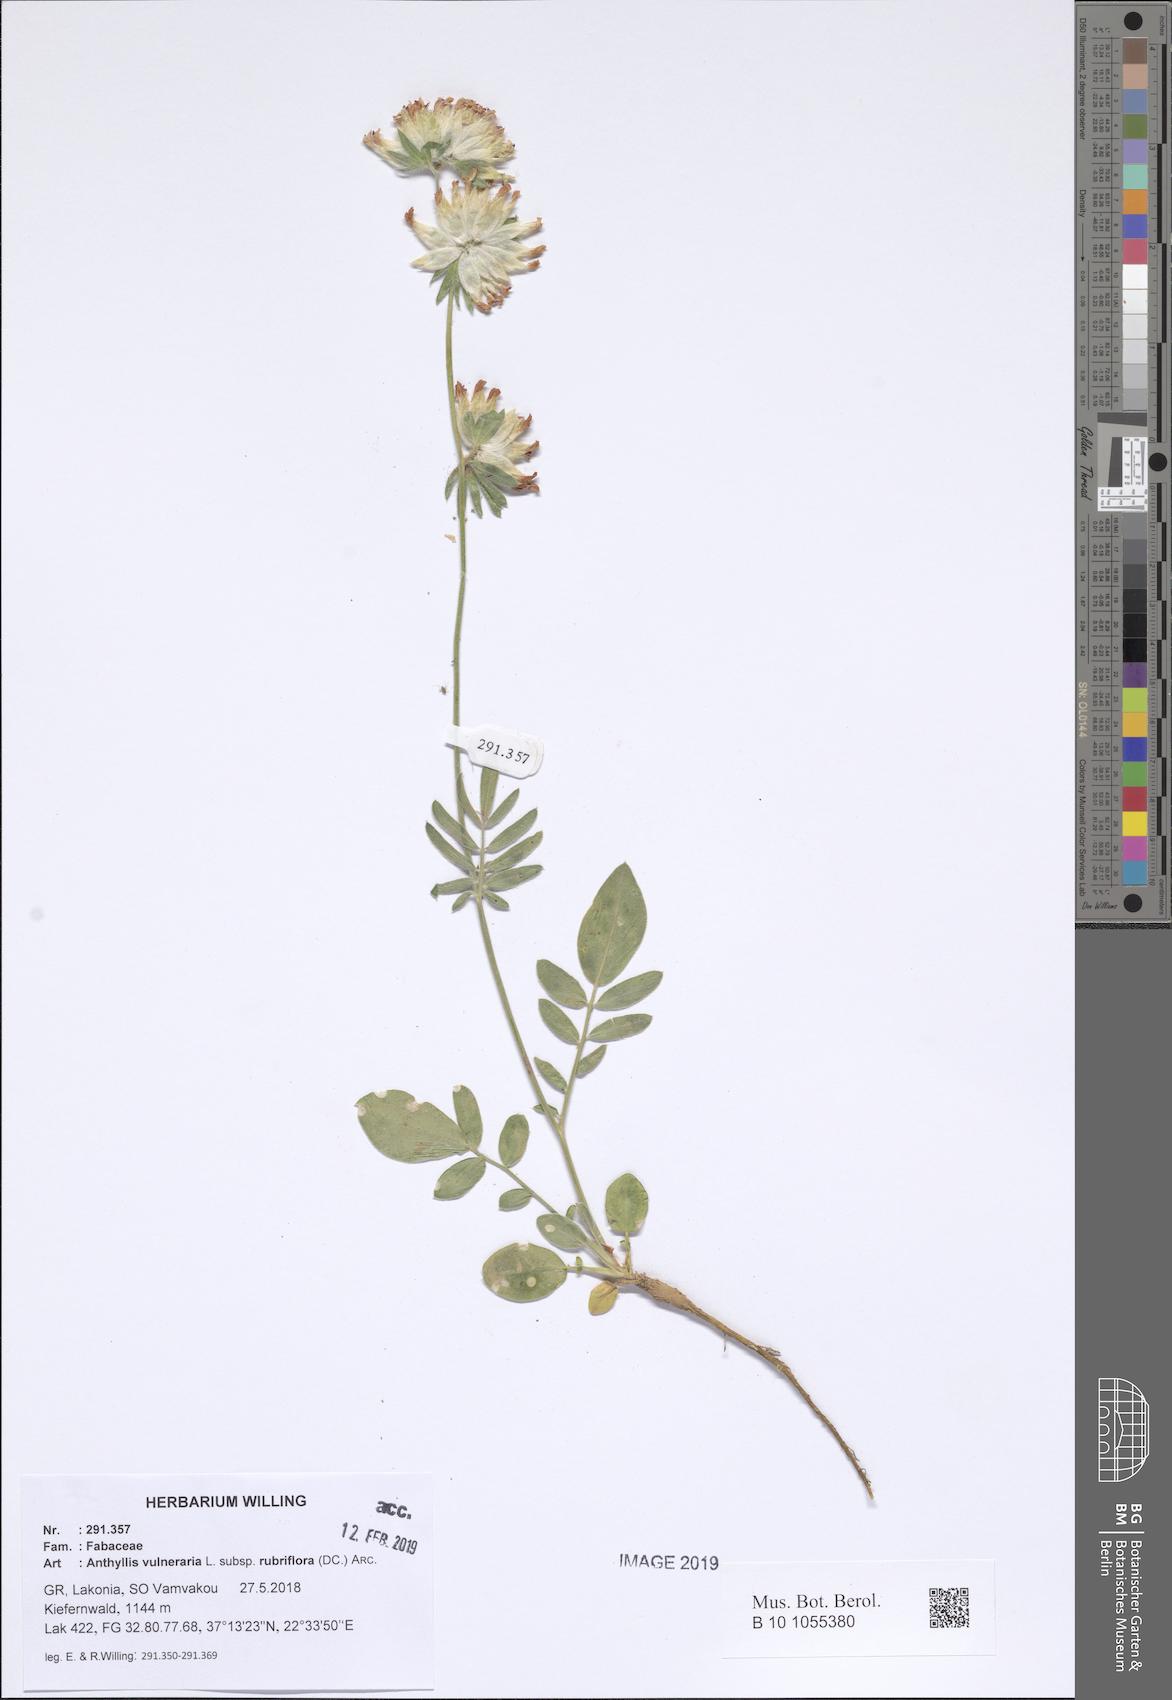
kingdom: Plantae
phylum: Tracheophyta
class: Magnoliopsida
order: Fabales
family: Fabaceae
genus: Anthyllis
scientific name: Anthyllis vulneraria
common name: Kidney vetch
